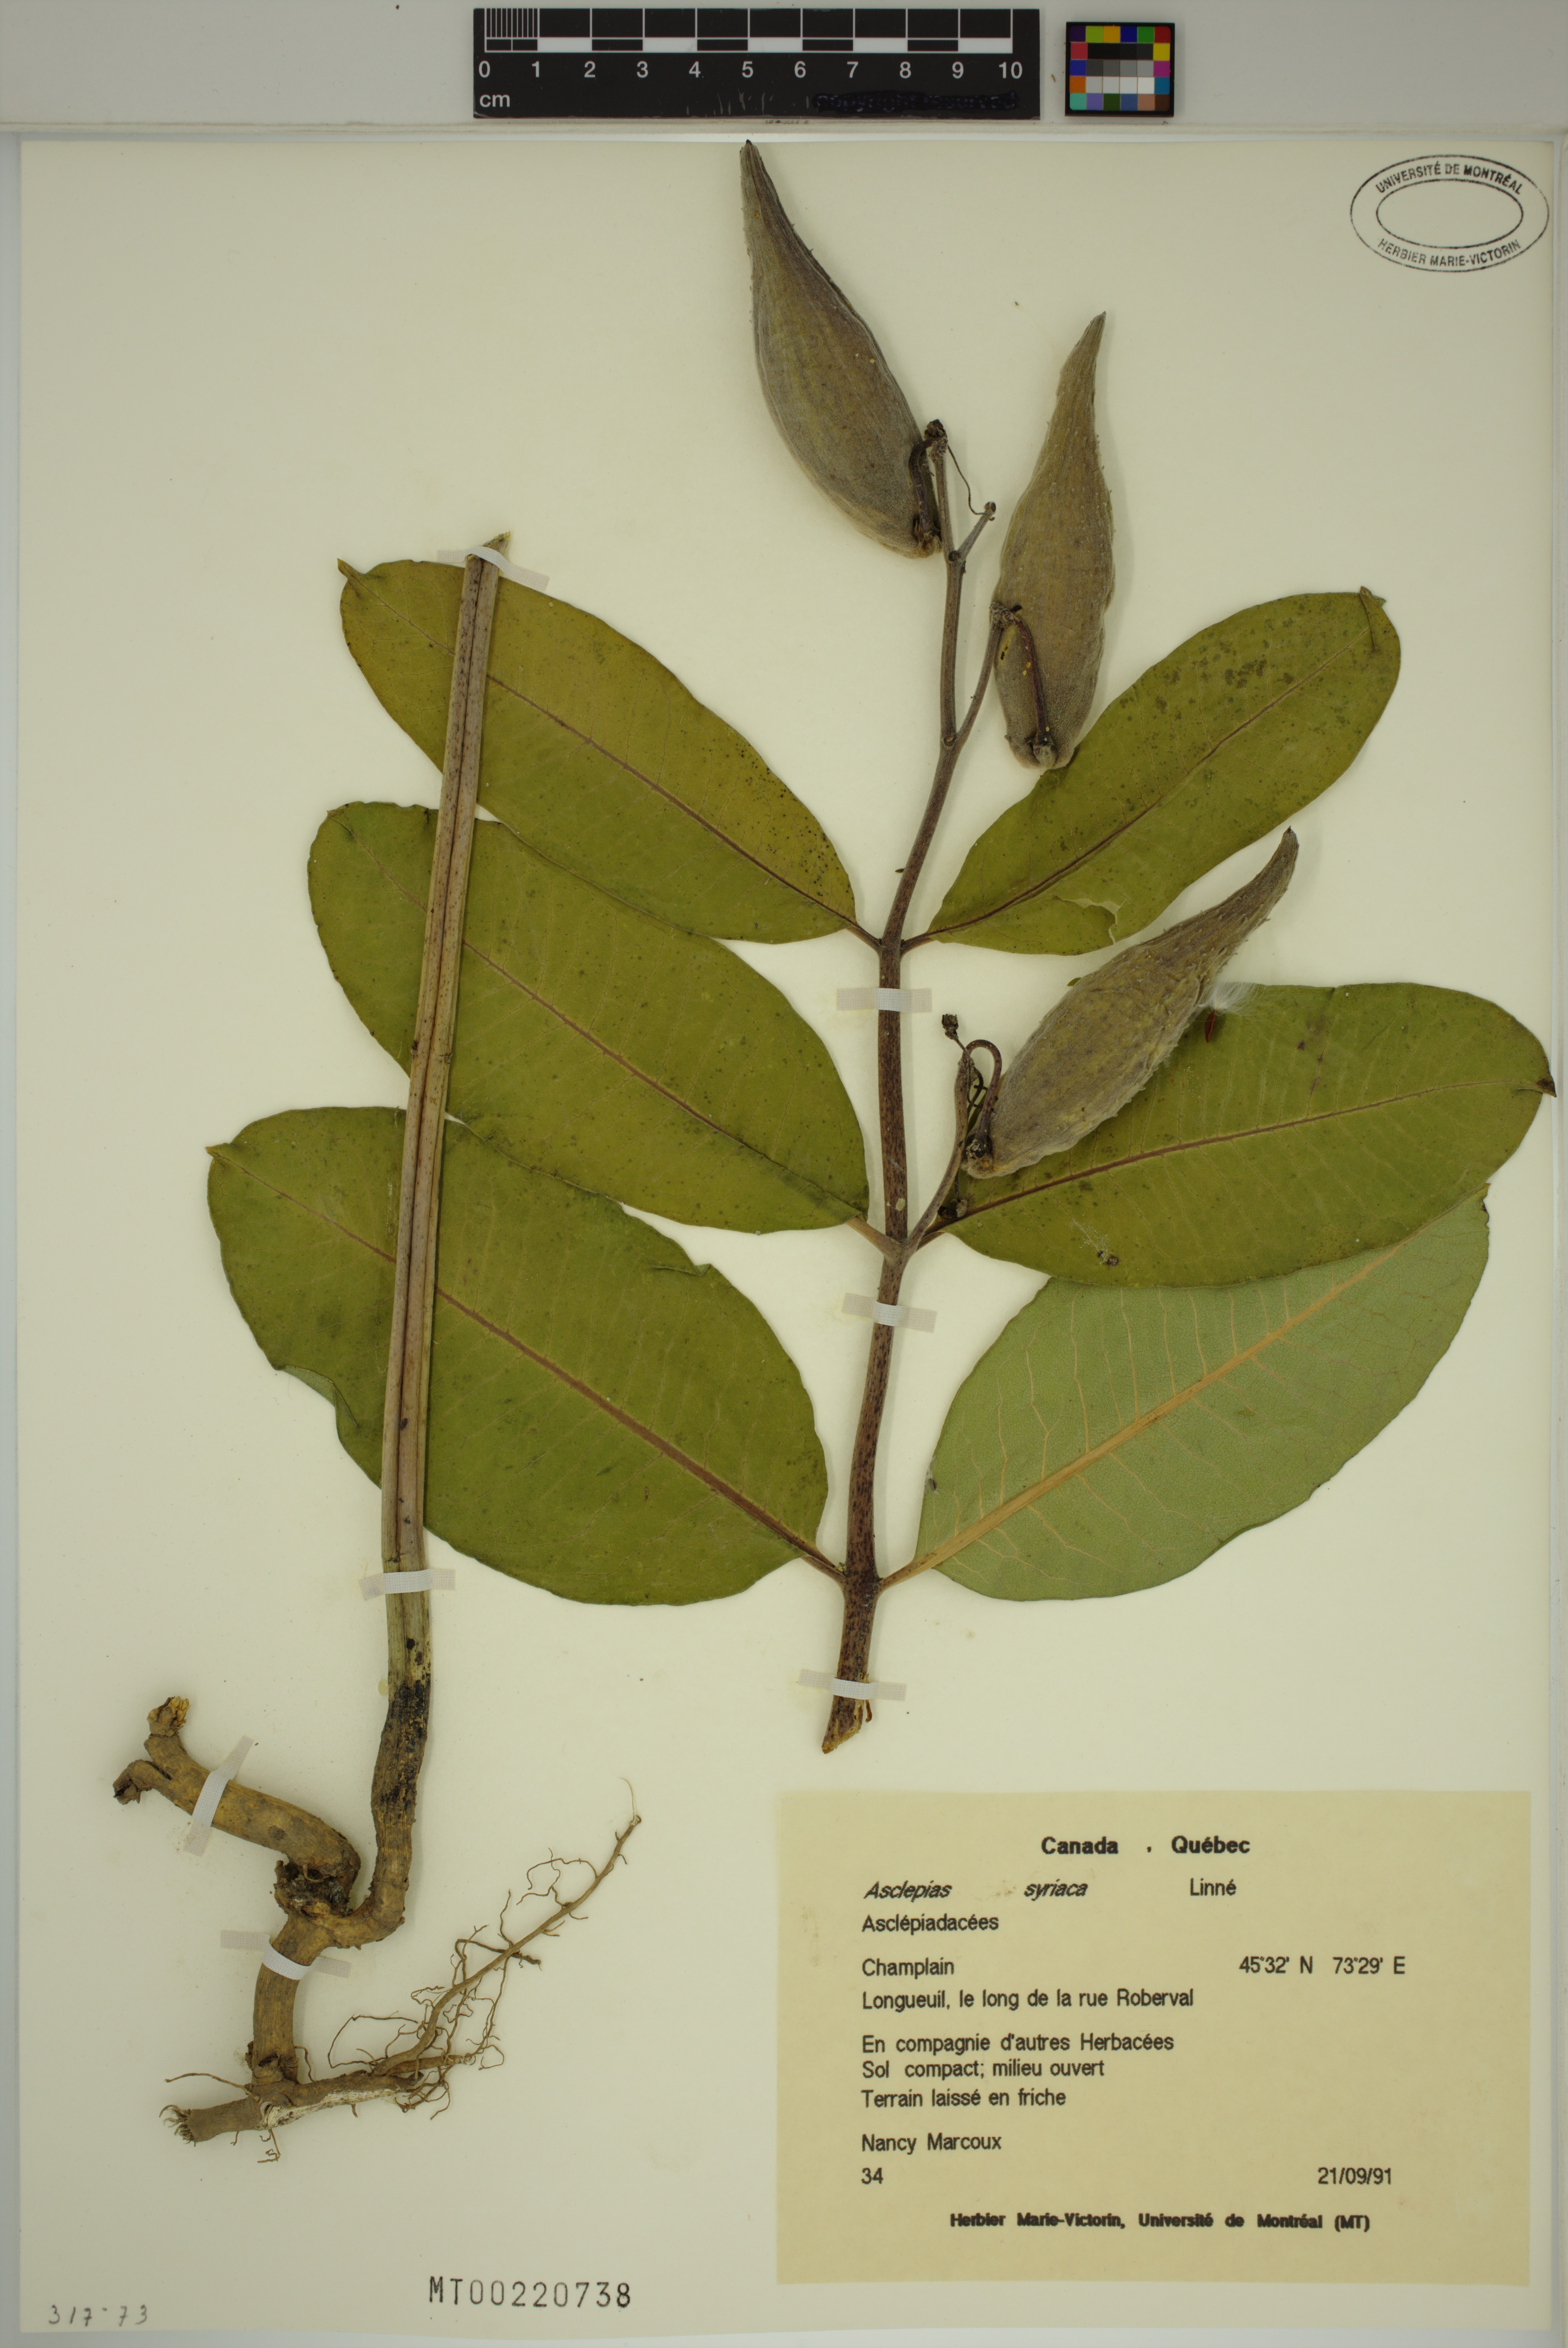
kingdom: Plantae
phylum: Tracheophyta
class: Magnoliopsida
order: Gentianales
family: Apocynaceae
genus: Asclepias
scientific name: Asclepias syriaca
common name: Common milkweed
